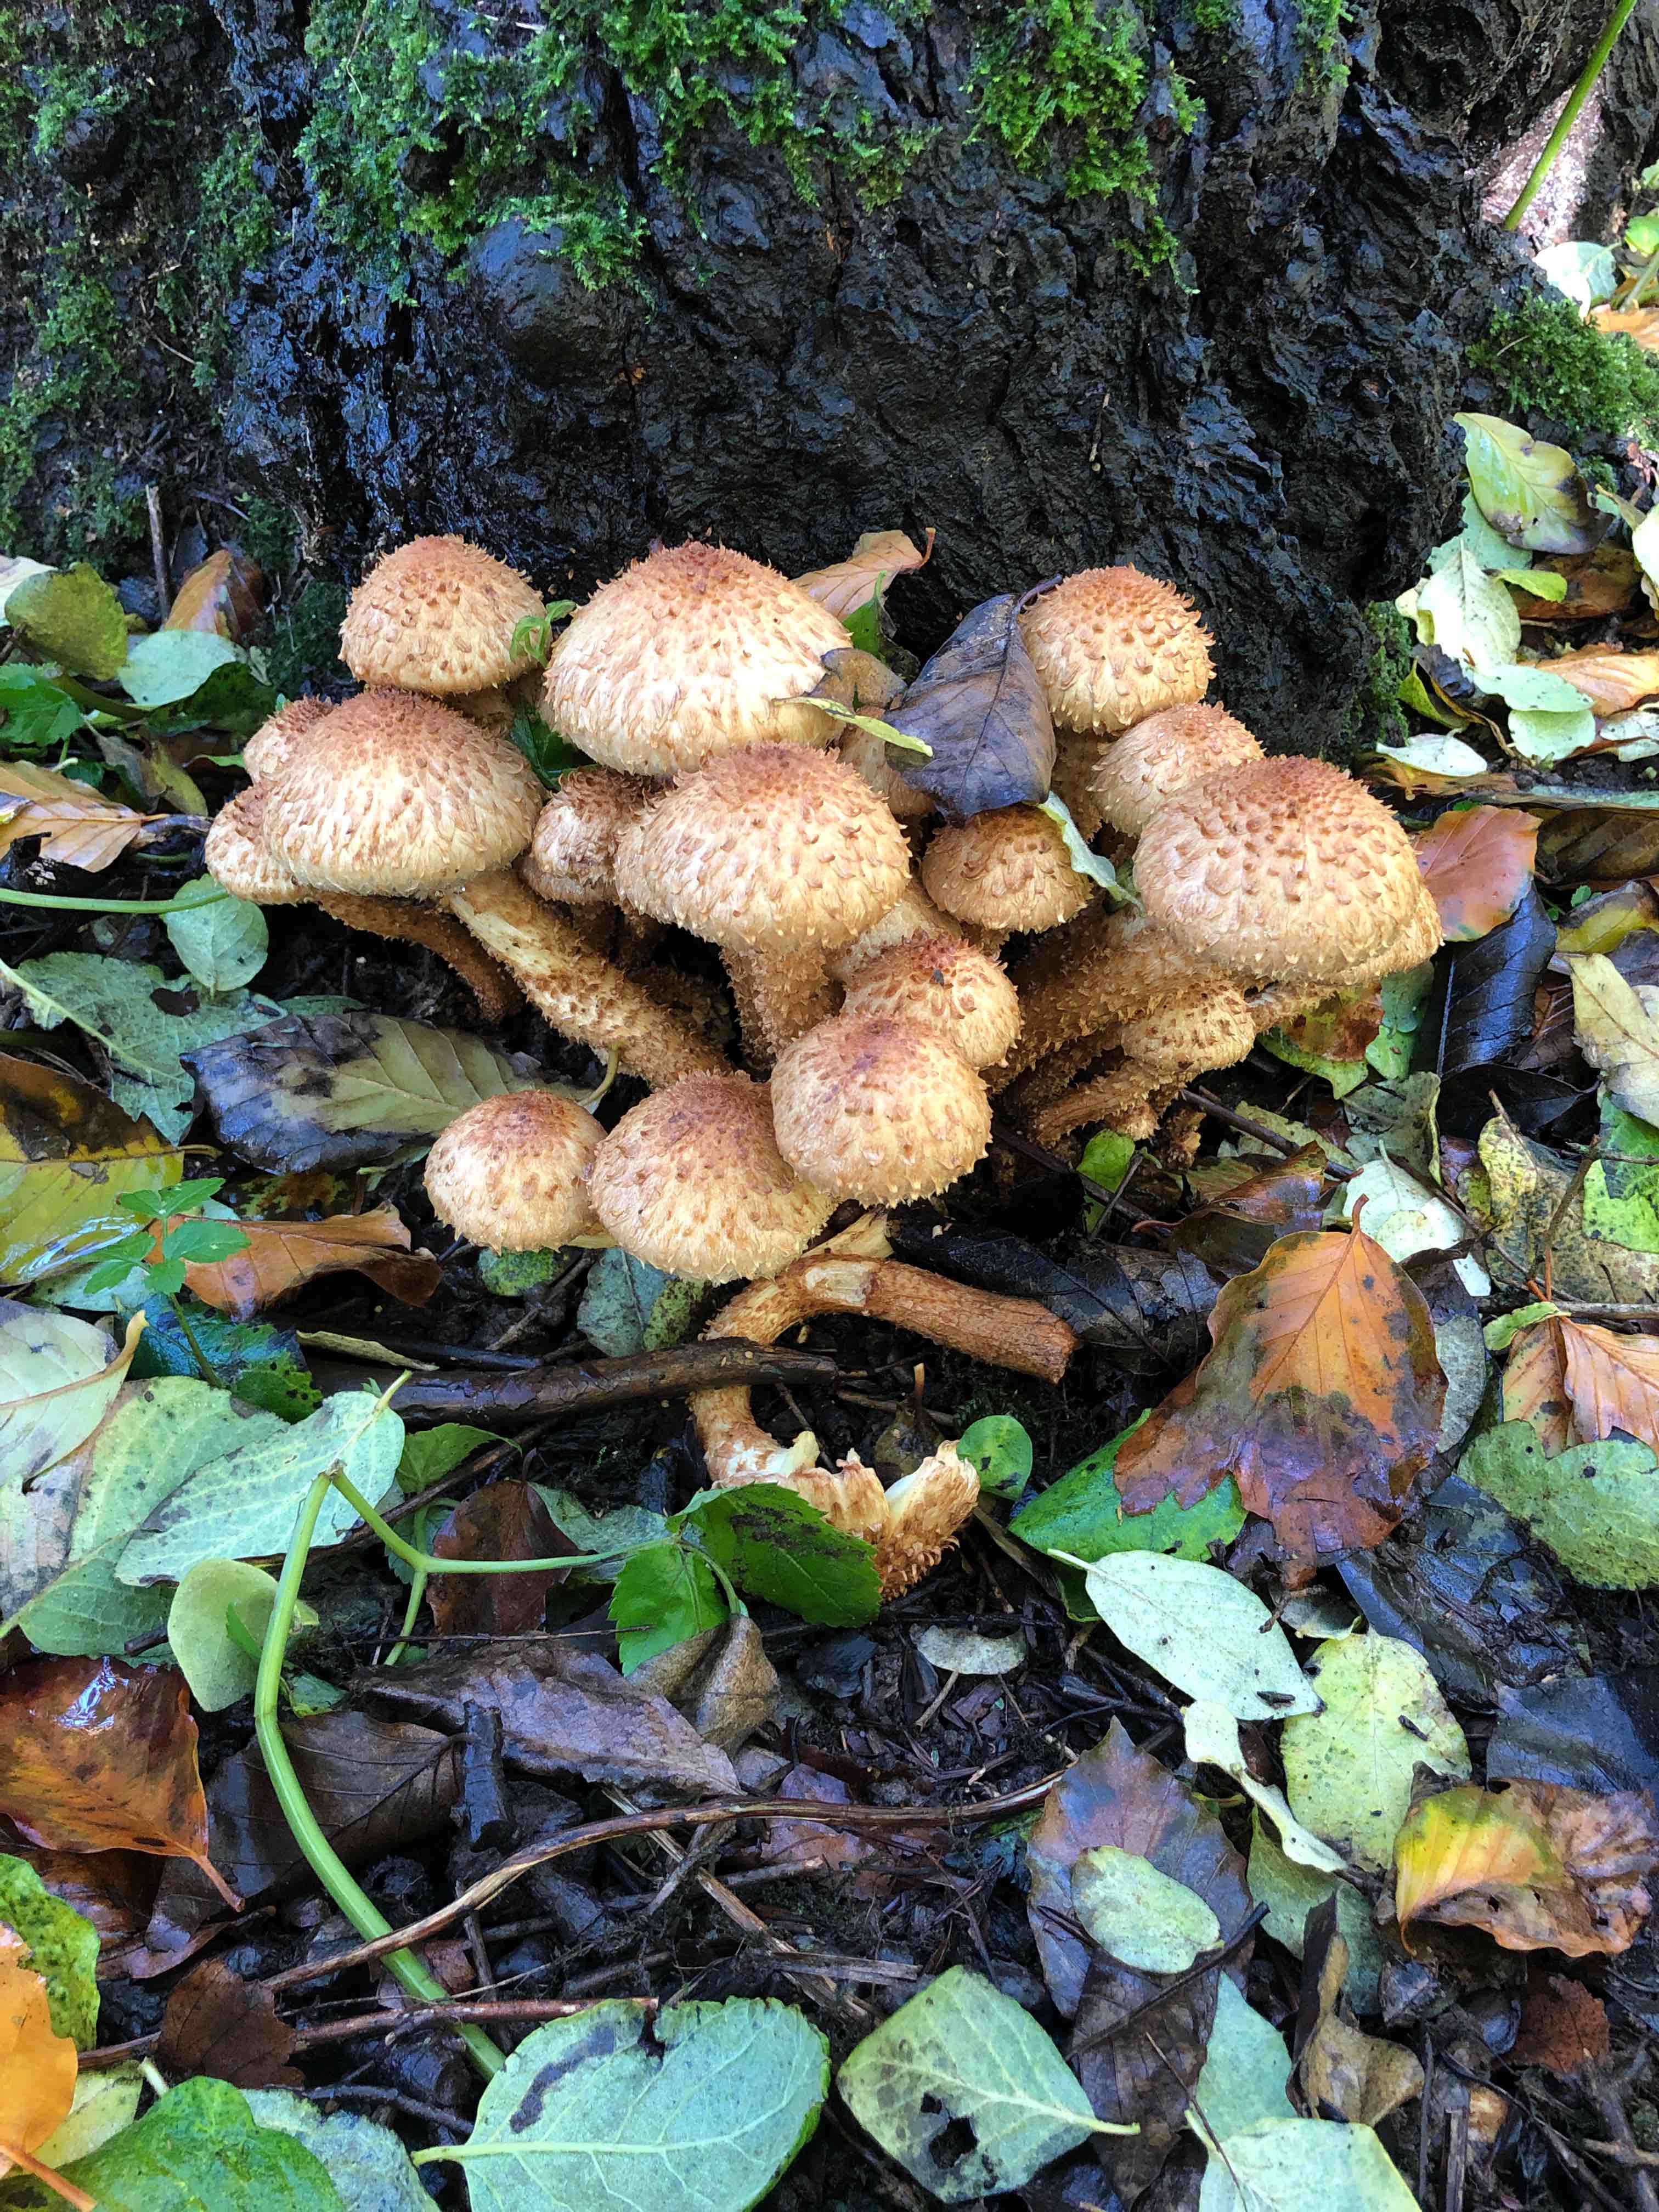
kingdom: Fungi
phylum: Basidiomycota
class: Agaricomycetes
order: Agaricales
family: Strophariaceae
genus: Pholiota
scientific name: Pholiota squarrosa
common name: krumskællet skælhat
